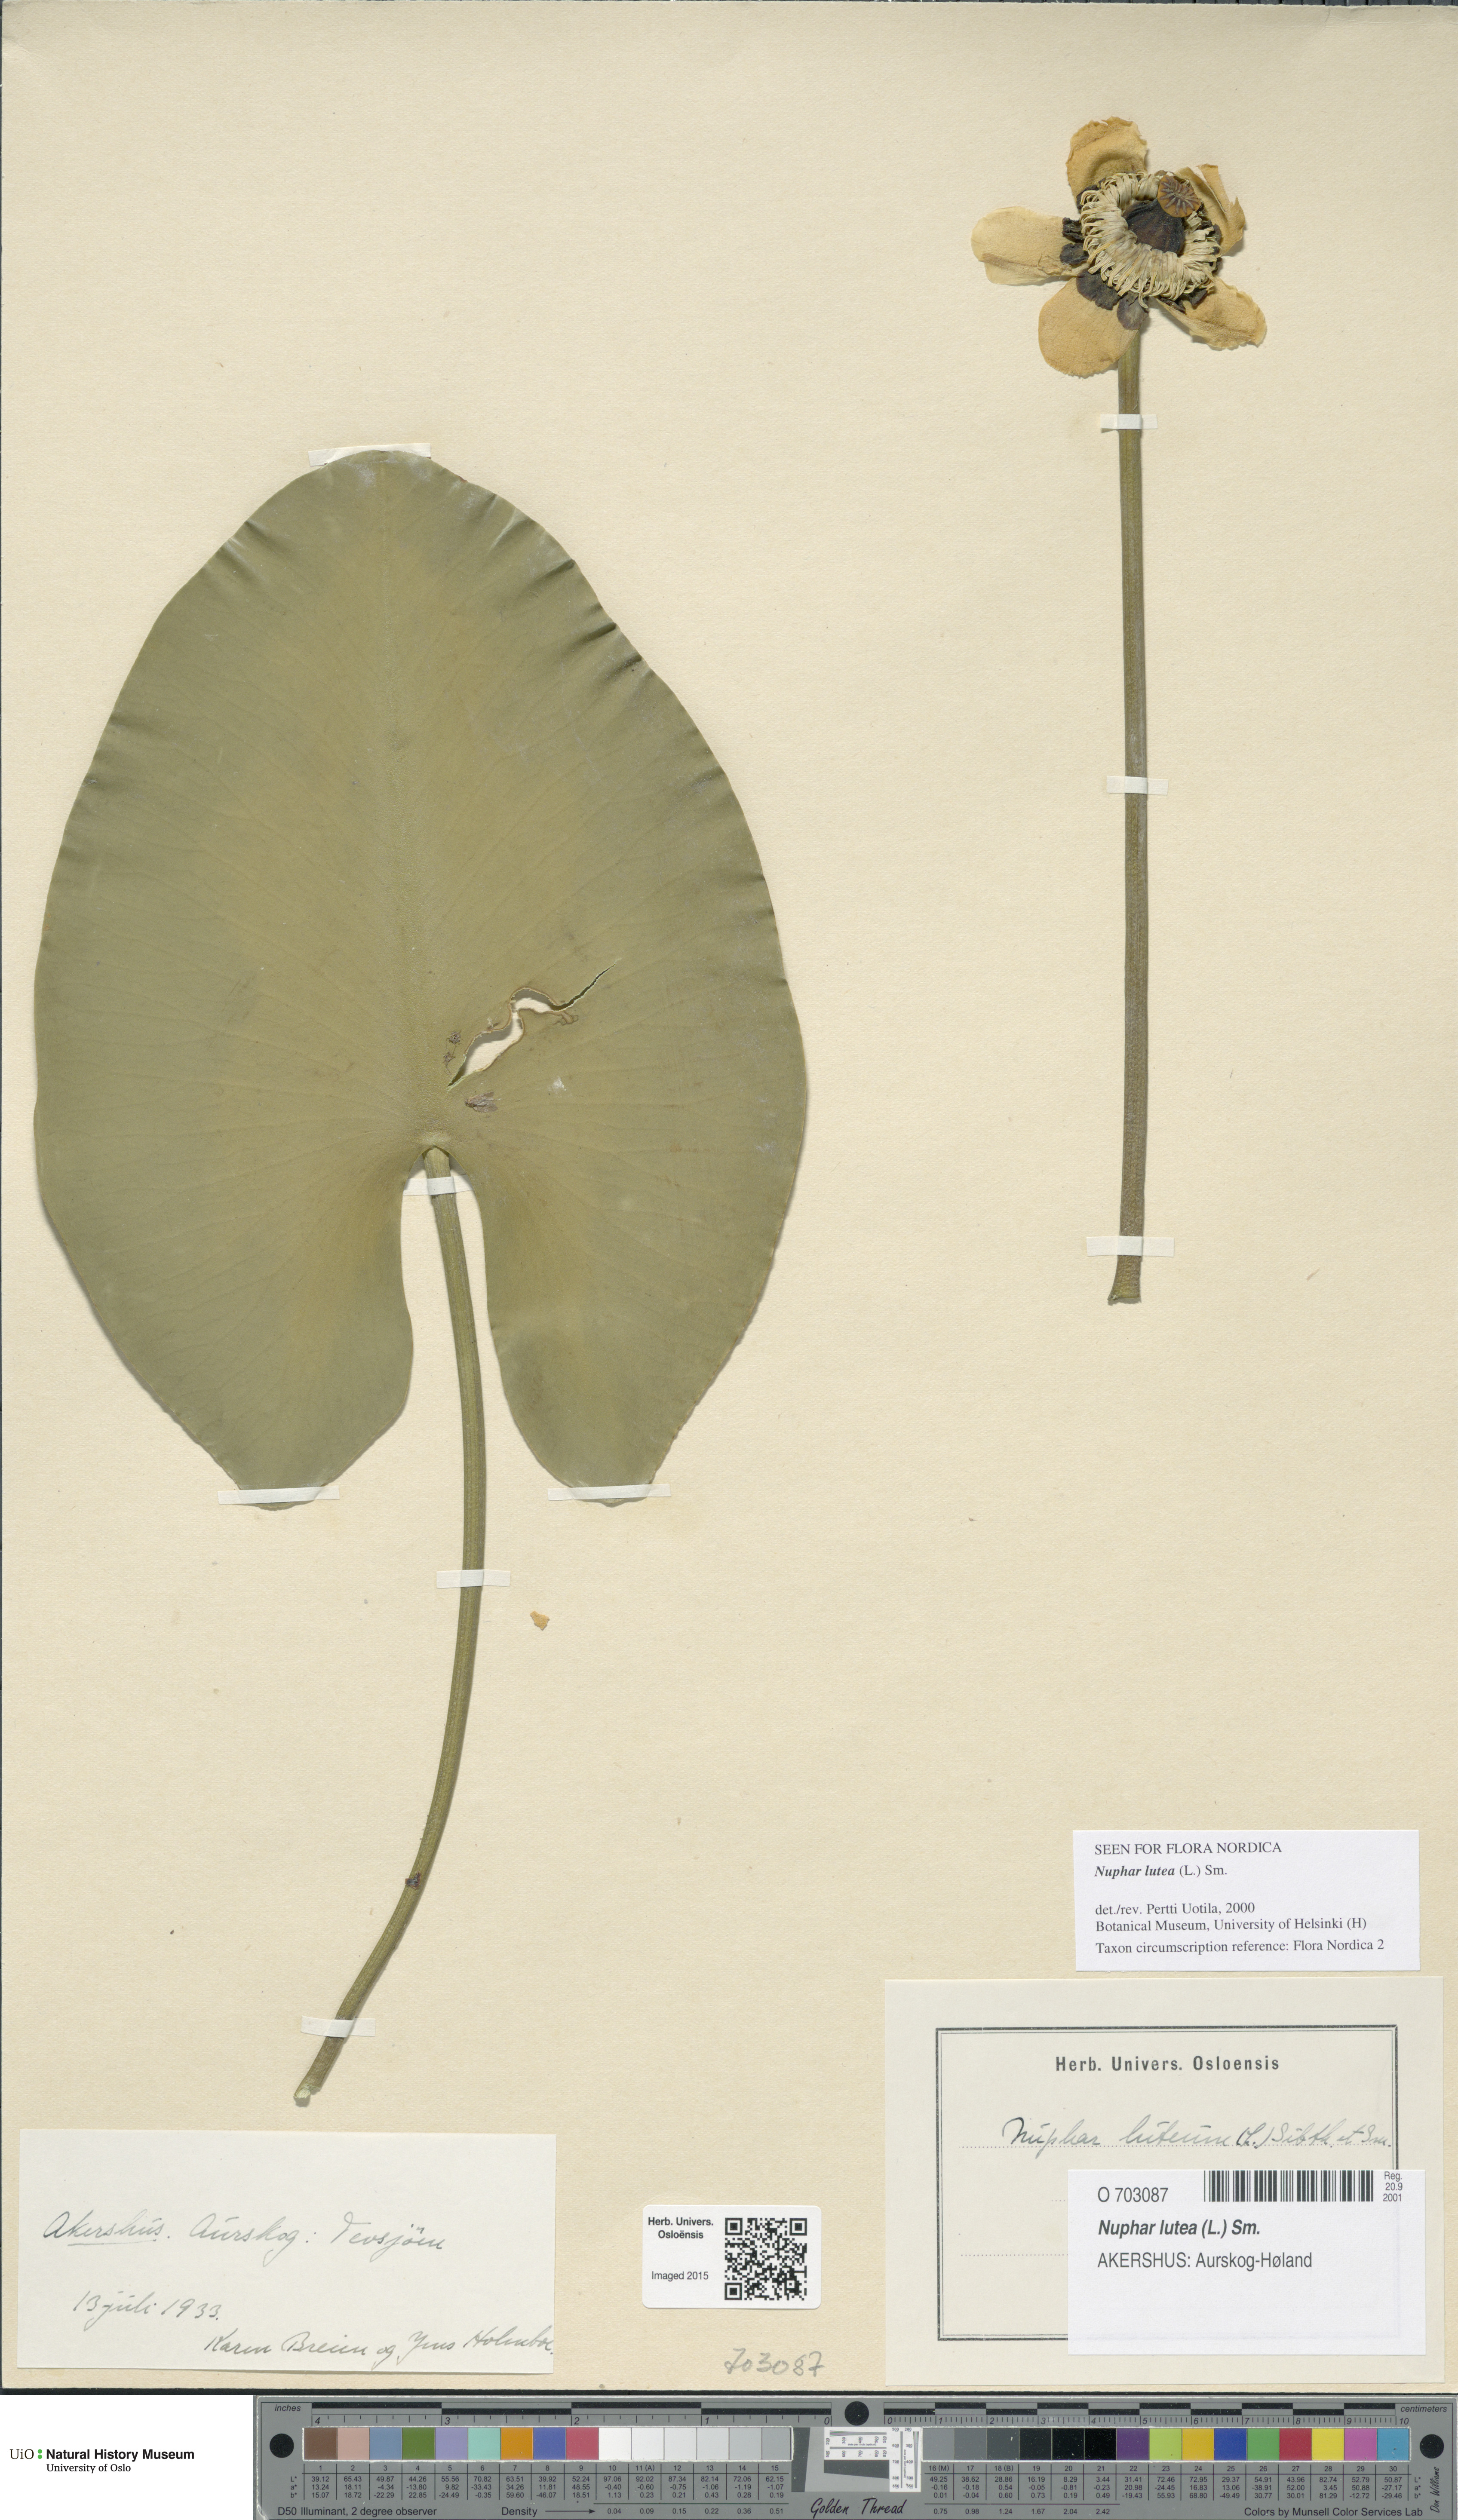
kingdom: Plantae
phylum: Tracheophyta
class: Magnoliopsida
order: Nymphaeales
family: Nymphaeaceae
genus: Nuphar
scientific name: Nuphar lutea
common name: Yellow water-lily
